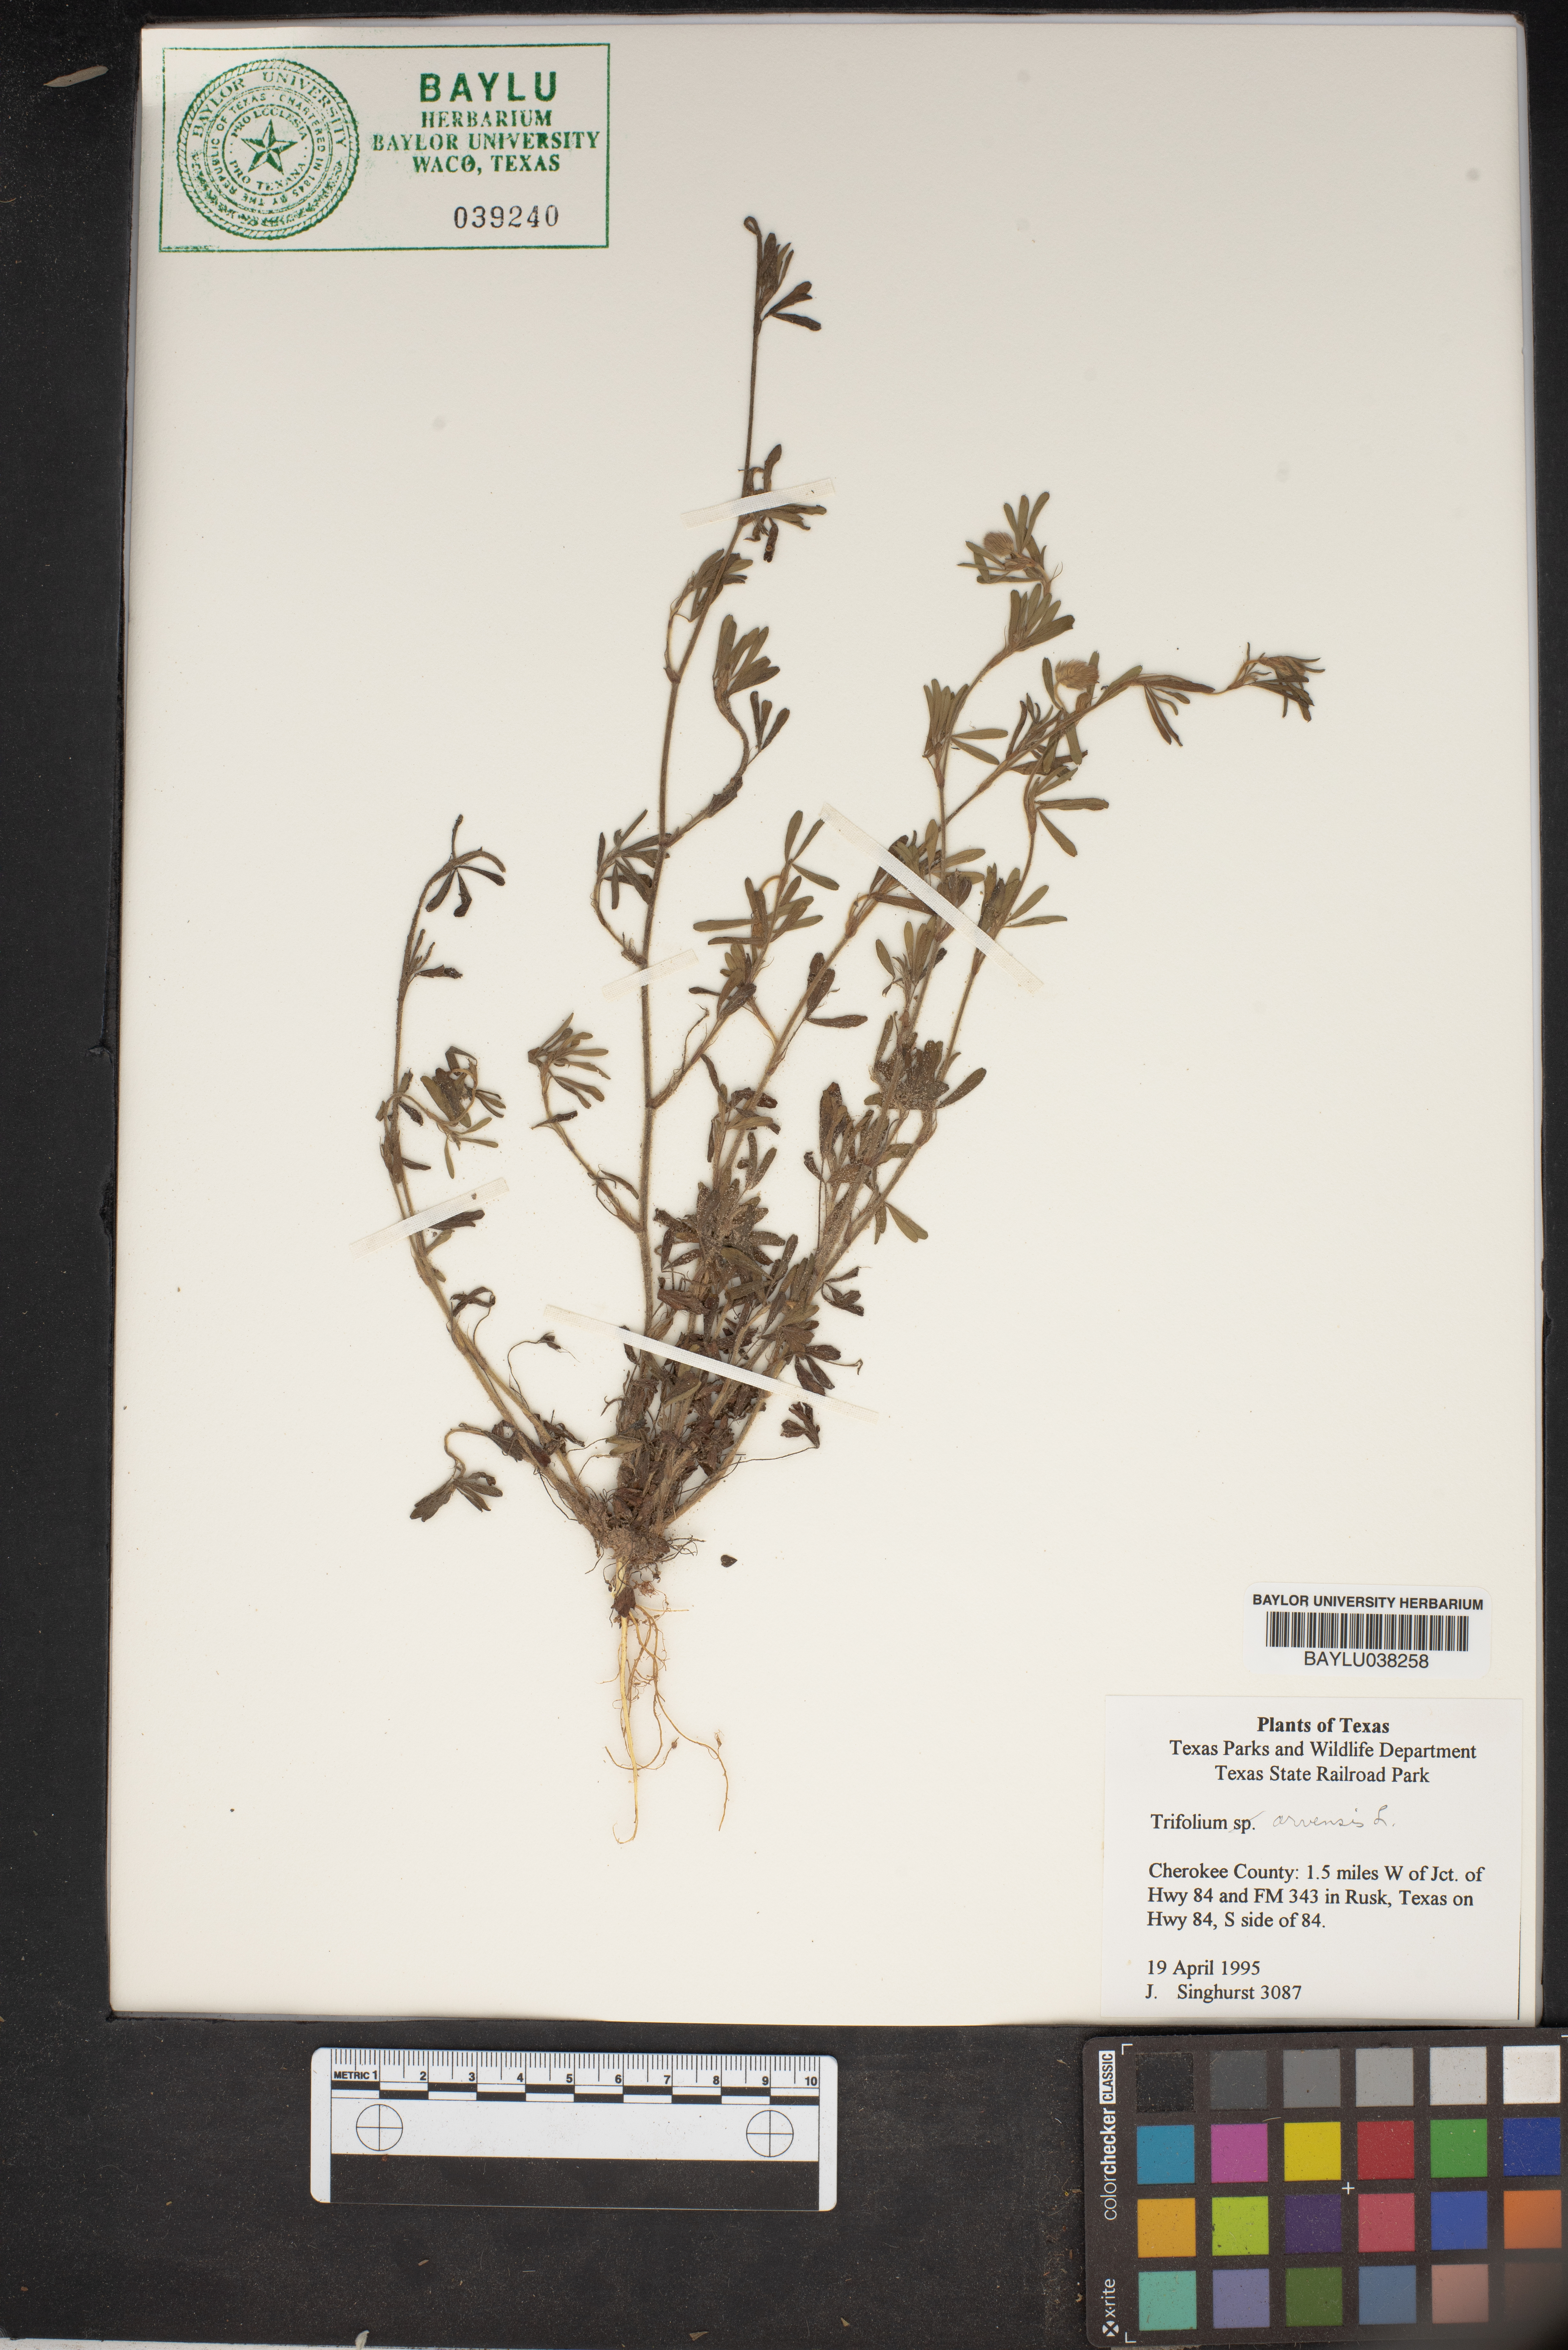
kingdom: Plantae
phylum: Tracheophyta
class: Magnoliopsida
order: Fabales
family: Fabaceae
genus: Trifolium
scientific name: Trifolium arvense
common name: Hare's-foot clover
